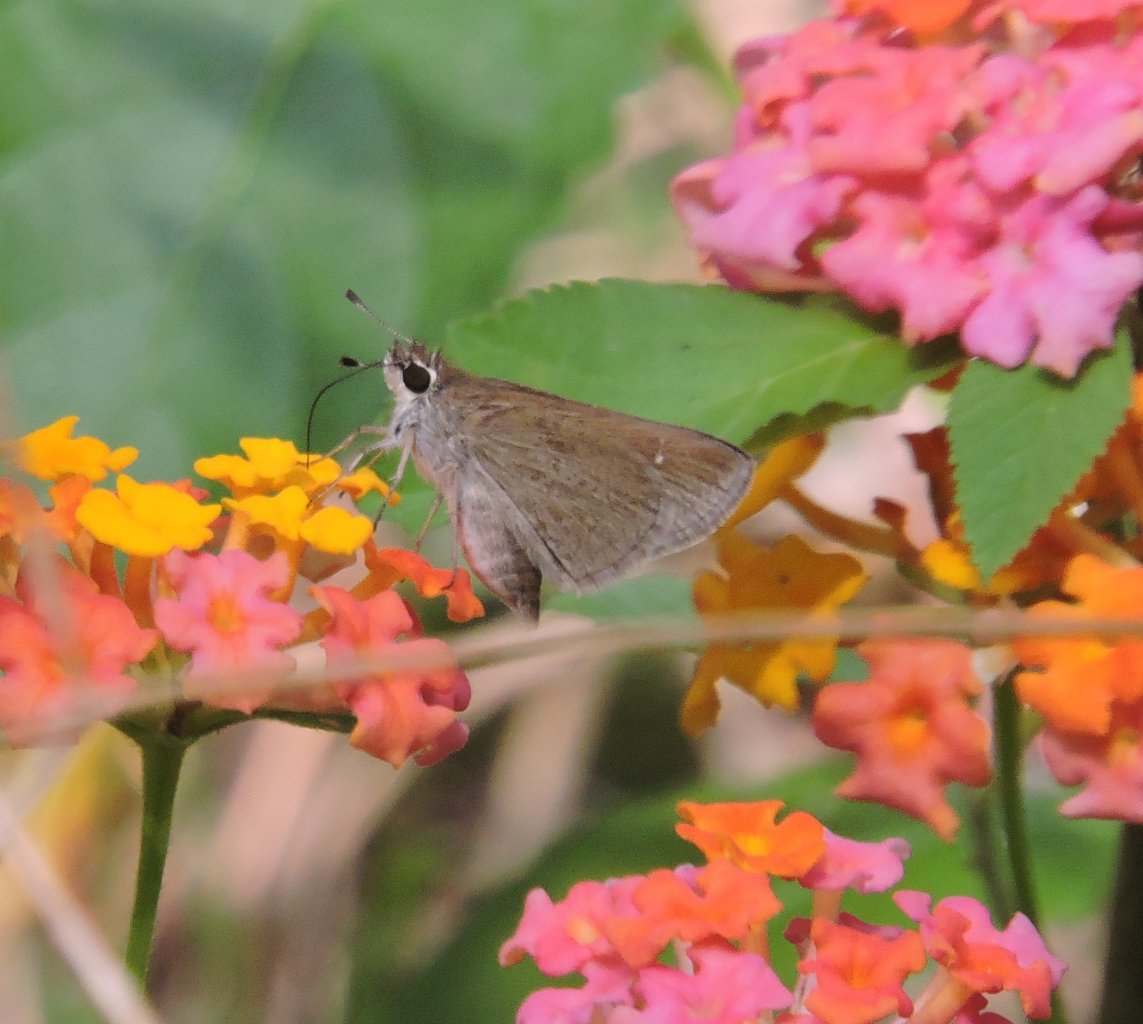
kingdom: Animalia
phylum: Arthropoda
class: Insecta
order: Lepidoptera
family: Hesperiidae
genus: Lerodea
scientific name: Lerodea eufala
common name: Eufala Skipper
